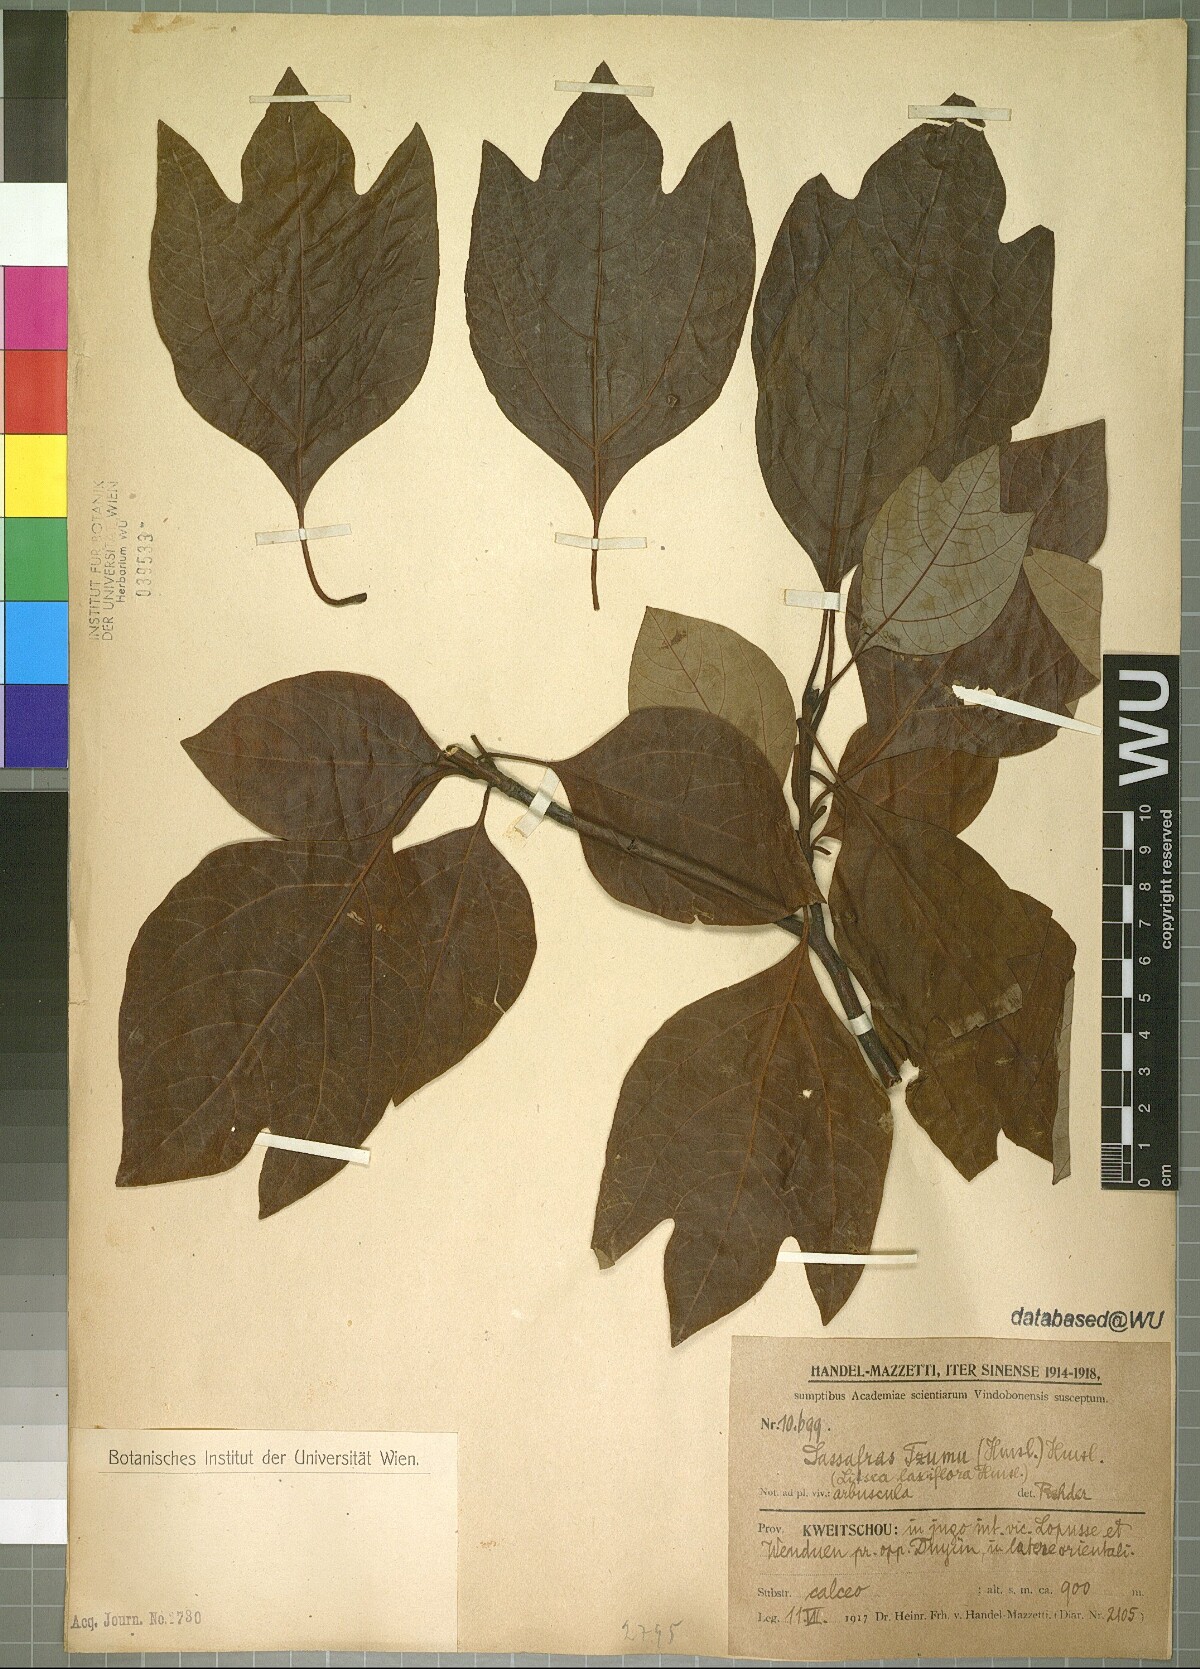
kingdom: Plantae
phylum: Tracheophyta
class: Magnoliopsida
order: Laurales
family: Lauraceae
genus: Sassafras
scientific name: Sassafras tzumu
